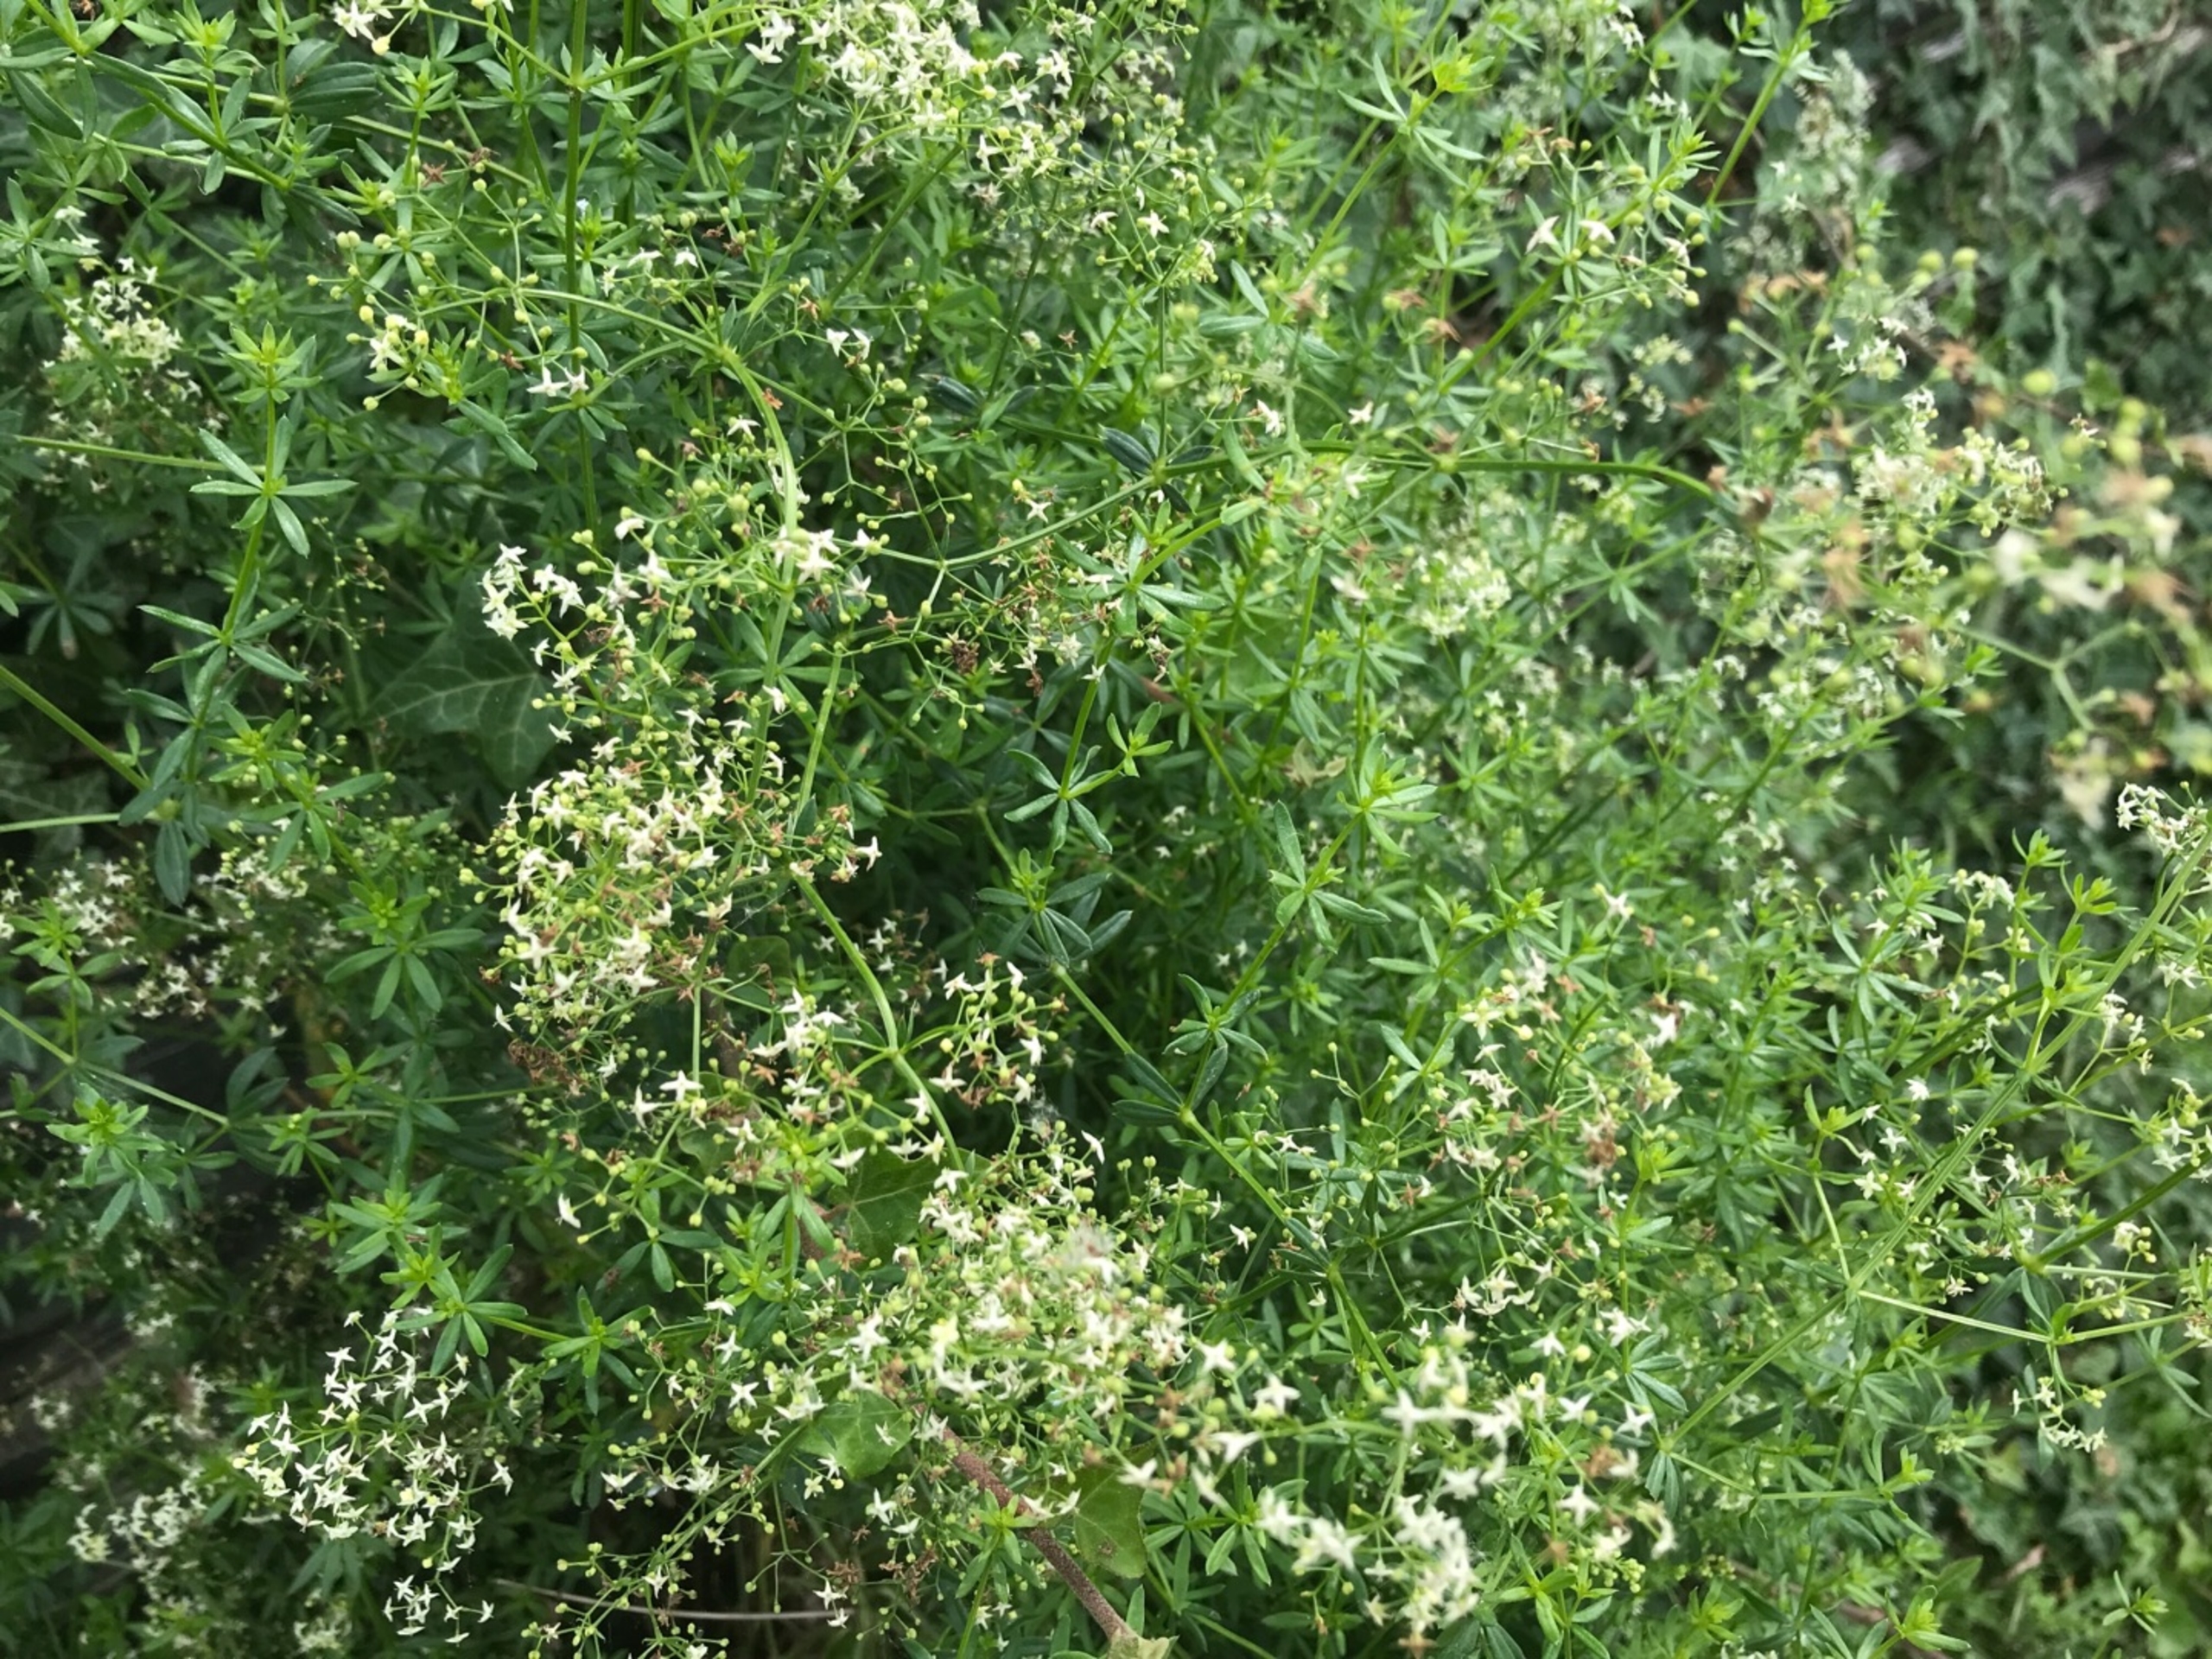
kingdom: Plantae
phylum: Tracheophyta
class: Magnoliopsida
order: Gentianales
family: Rubiaceae
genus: Galium
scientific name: Galium mollugo
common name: Hvid snerre
